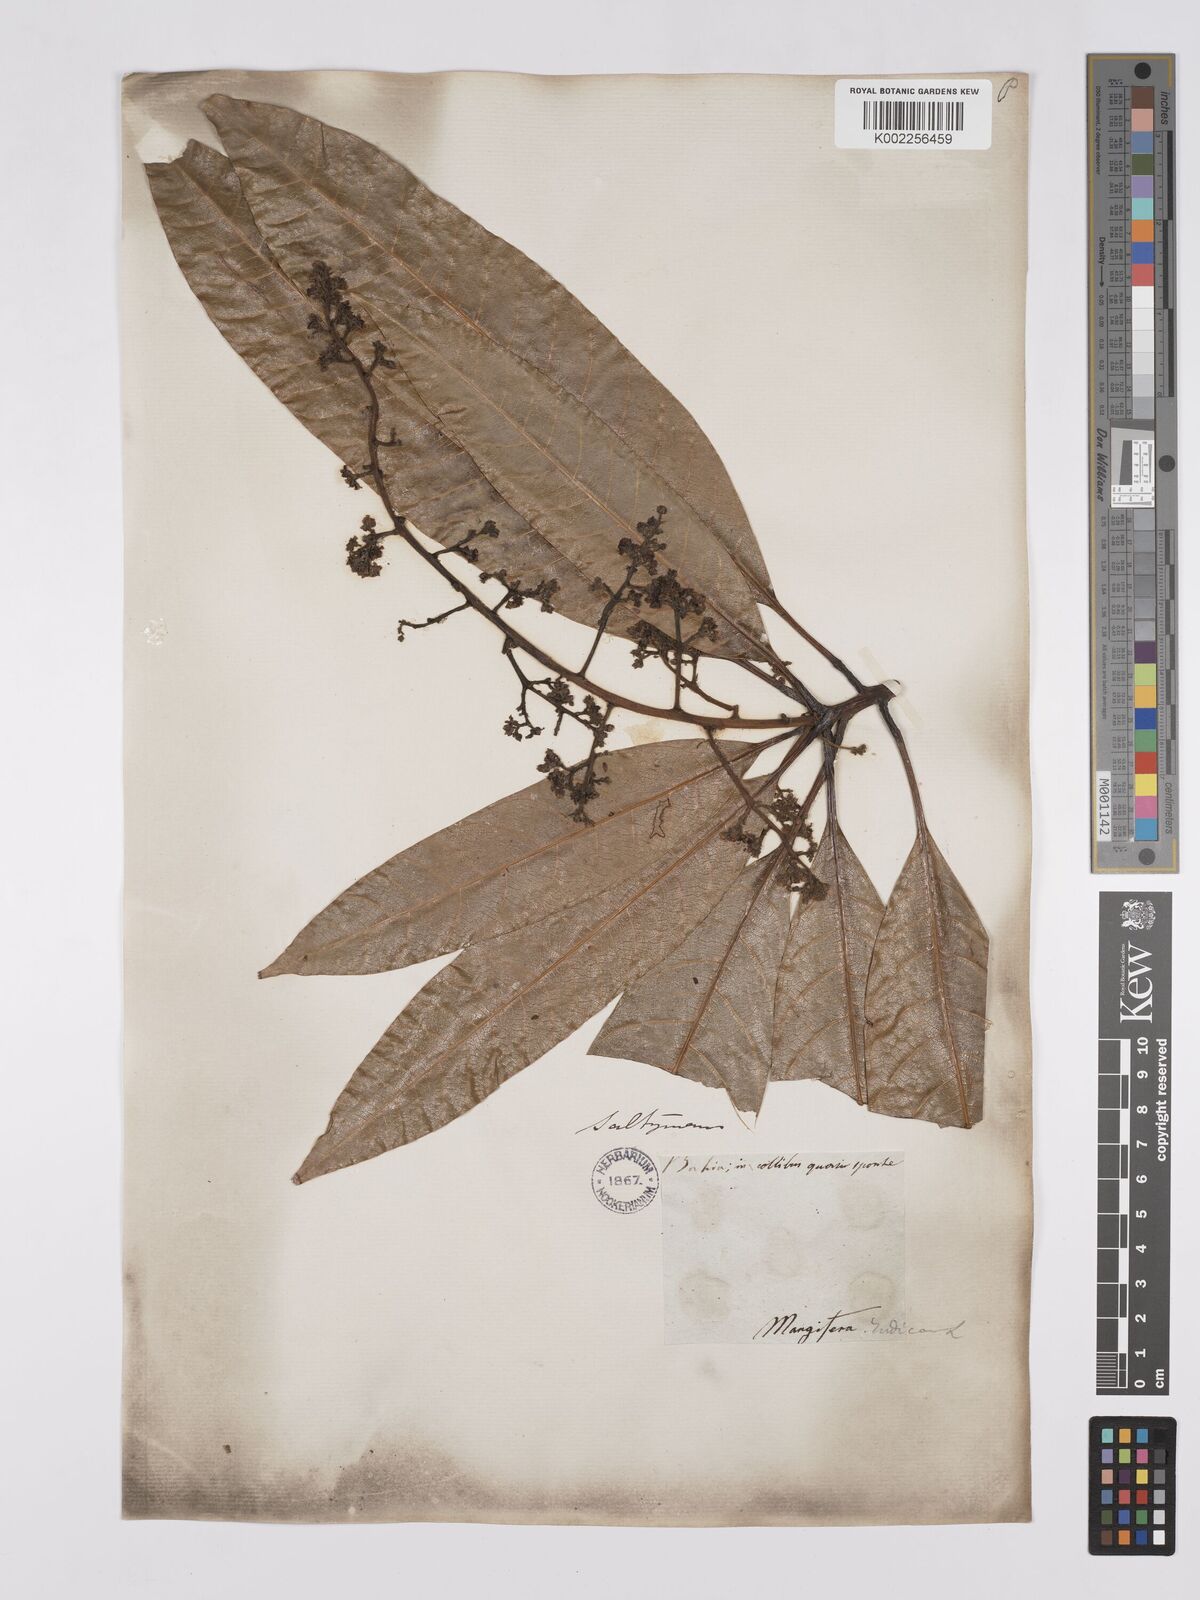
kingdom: Plantae
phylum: Tracheophyta
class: Magnoliopsida
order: Sapindales
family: Anacardiaceae
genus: Mangifera
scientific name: Mangifera indica
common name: Mango
